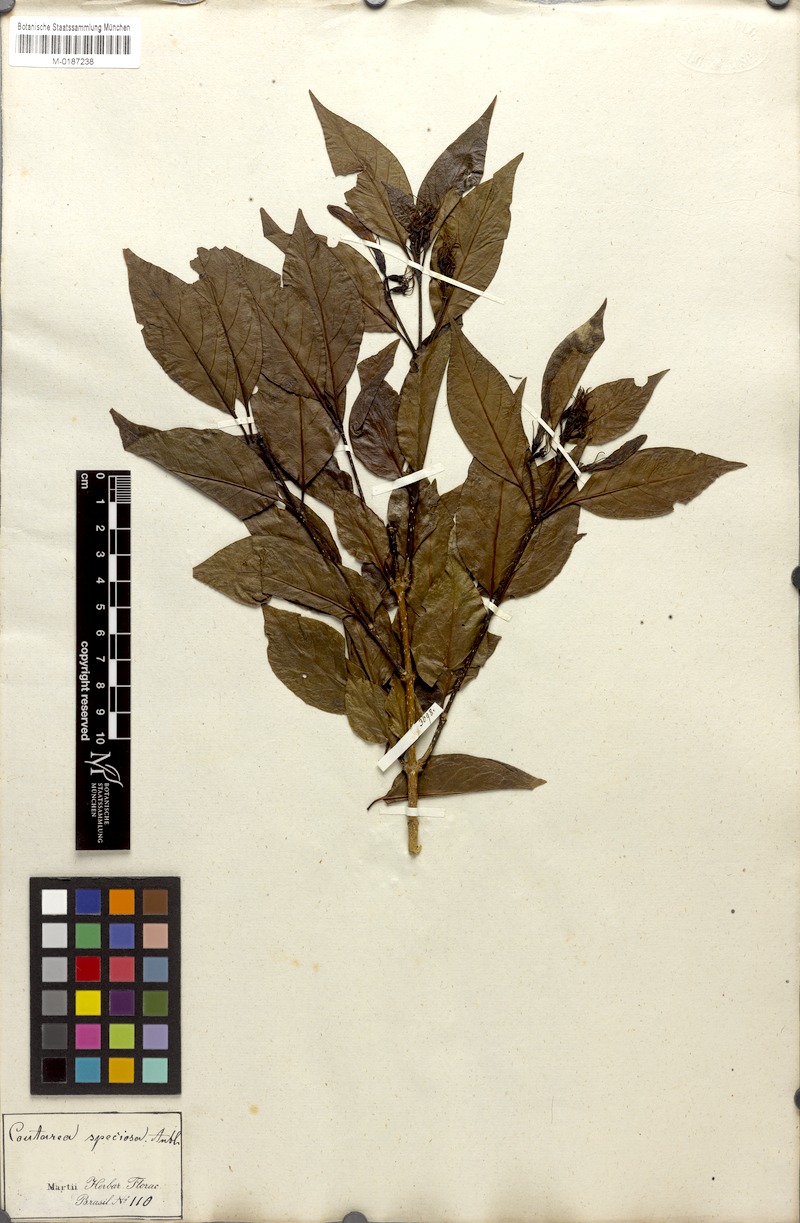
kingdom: Plantae
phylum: Tracheophyta
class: Magnoliopsida
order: Gentianales
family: Rubiaceae
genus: Coutarea
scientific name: Coutarea hexandra
